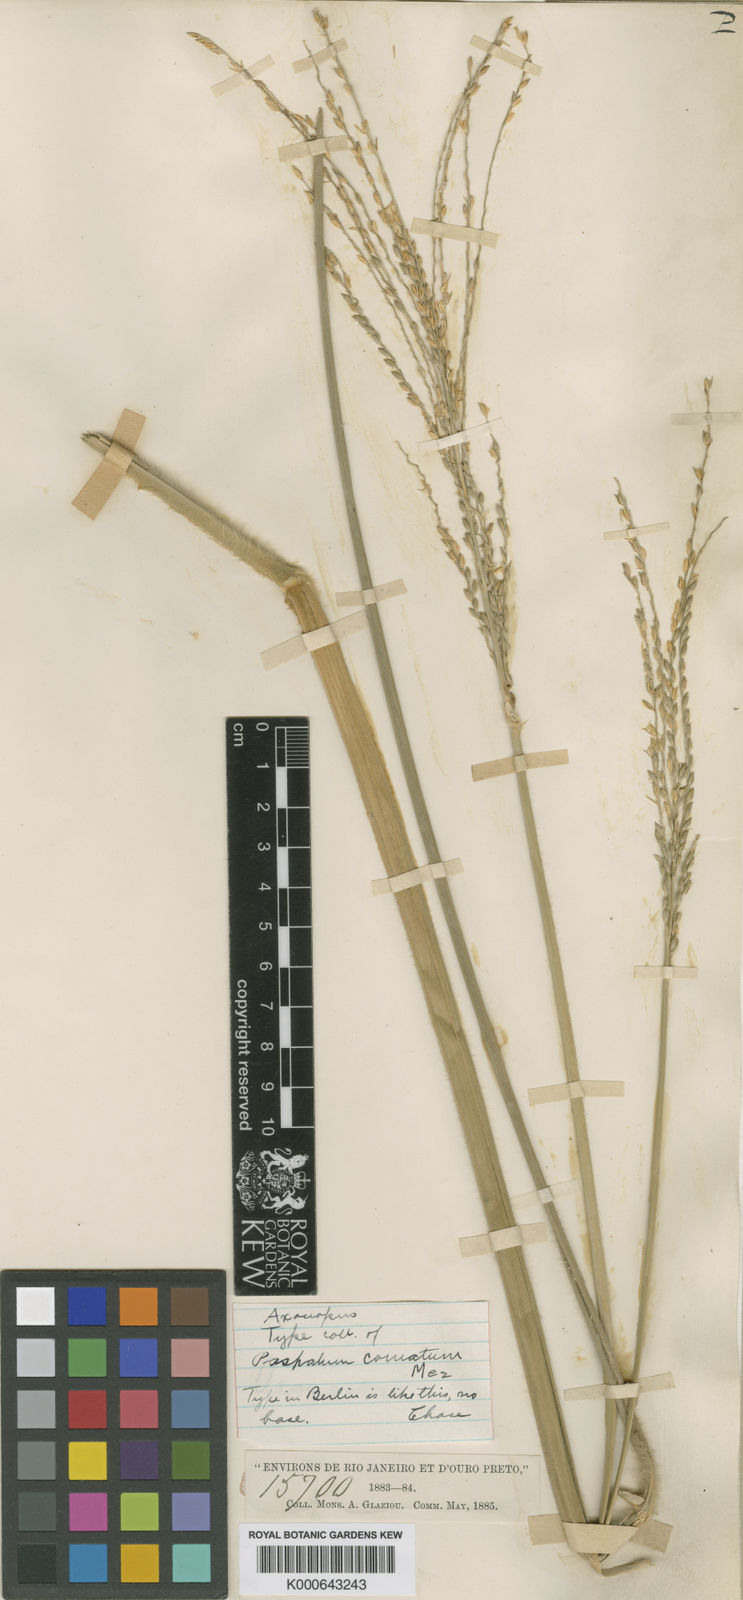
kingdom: Plantae
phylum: Tracheophyta
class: Liliopsida
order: Poales
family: Poaceae
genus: Axonopus
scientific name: Axonopus comatus
